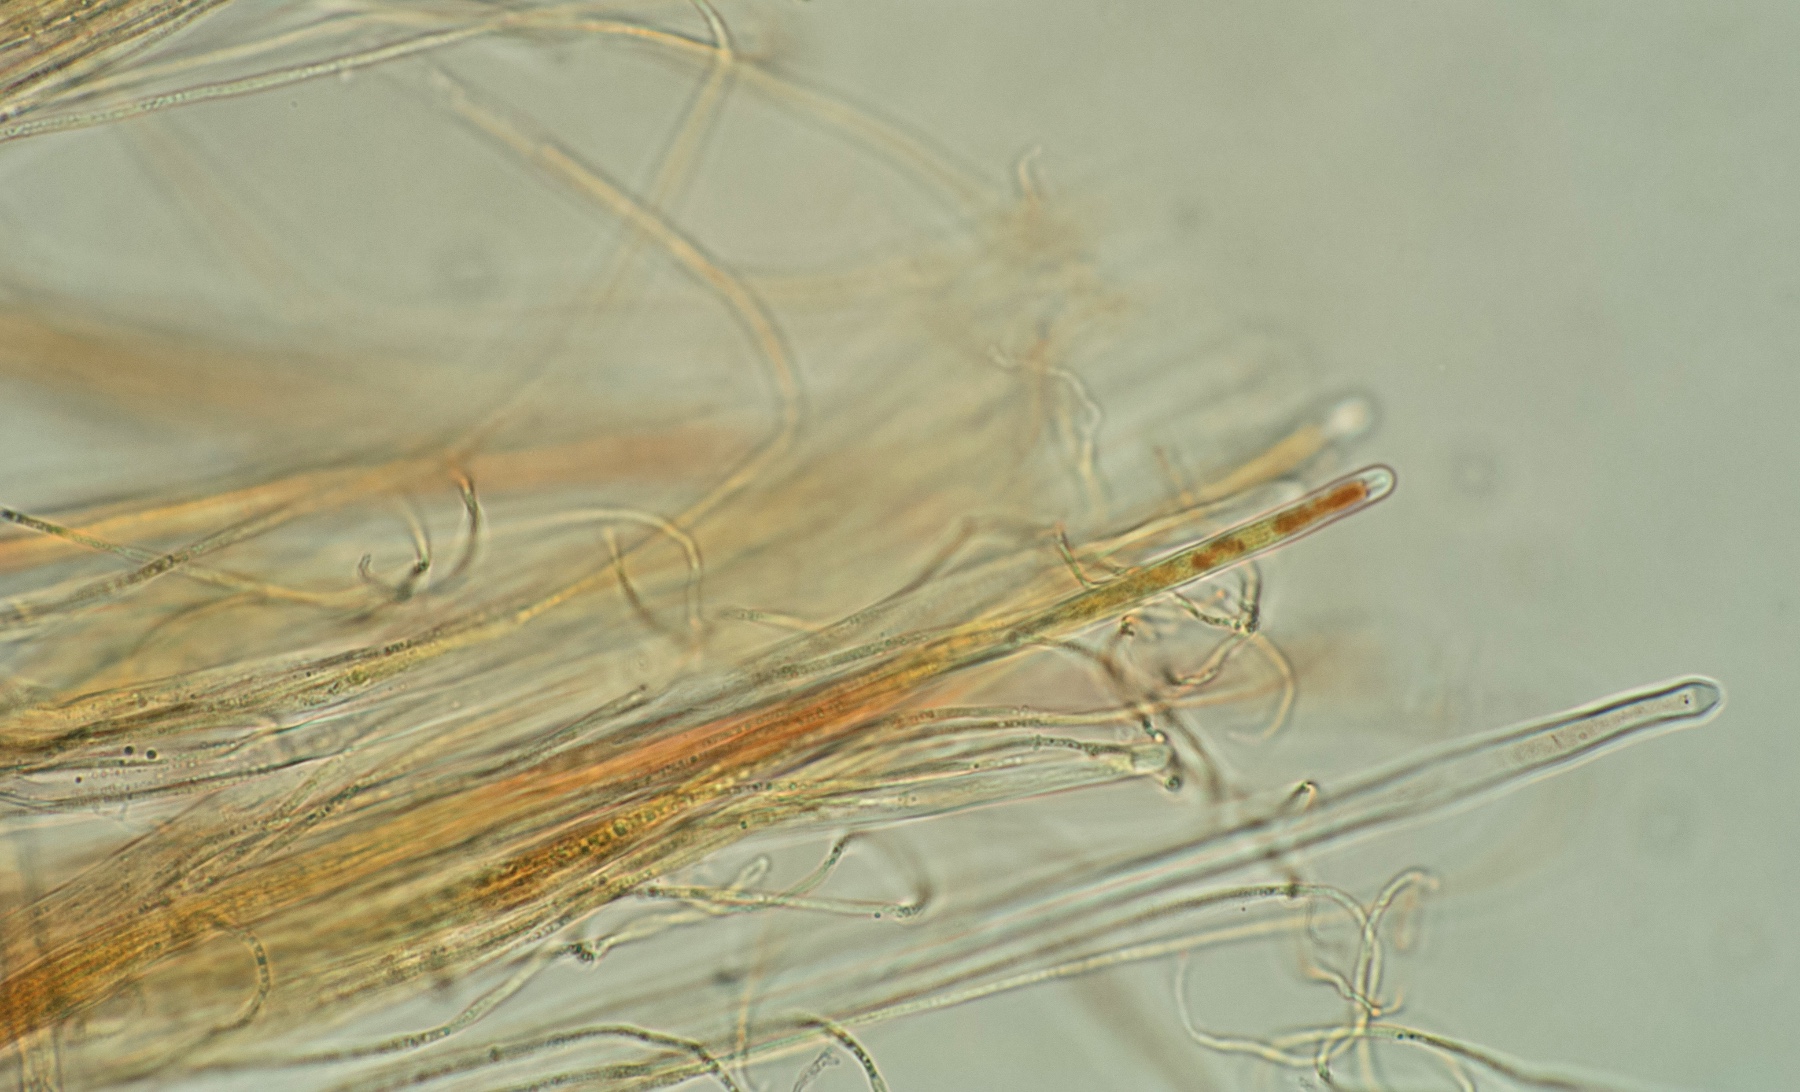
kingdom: Fungi
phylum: Ascomycota
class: Lecanoromycetes
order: Ostropales
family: Stictidaceae
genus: Stictis
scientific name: Stictis radiata
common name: tandet barkhul
